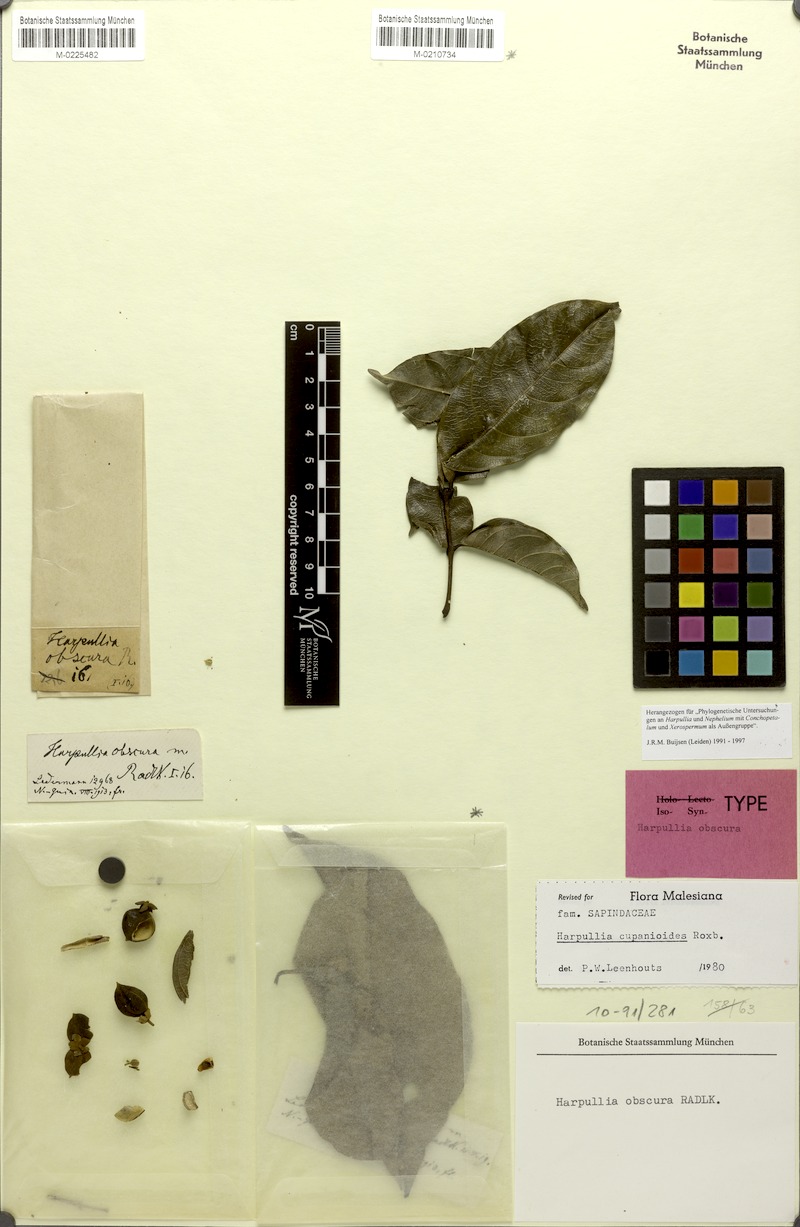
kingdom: Plantae
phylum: Tracheophyta
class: Magnoliopsida
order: Sapindales
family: Sapindaceae
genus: Harpullia
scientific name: Harpullia cupanioides
